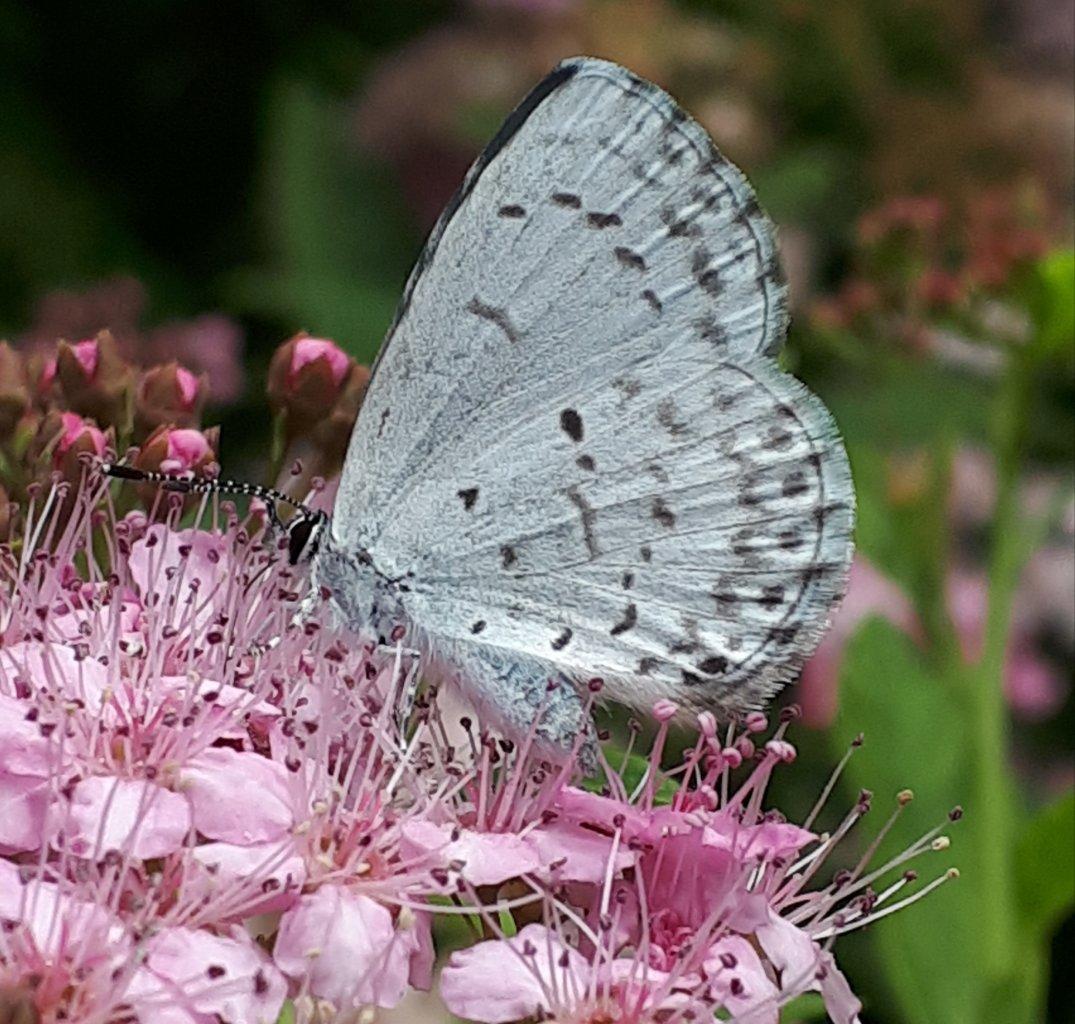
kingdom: Animalia
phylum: Arthropoda
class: Insecta
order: Lepidoptera
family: Lycaenidae
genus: Celastrina
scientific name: Celastrina lucia
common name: Northern Spring Azure
